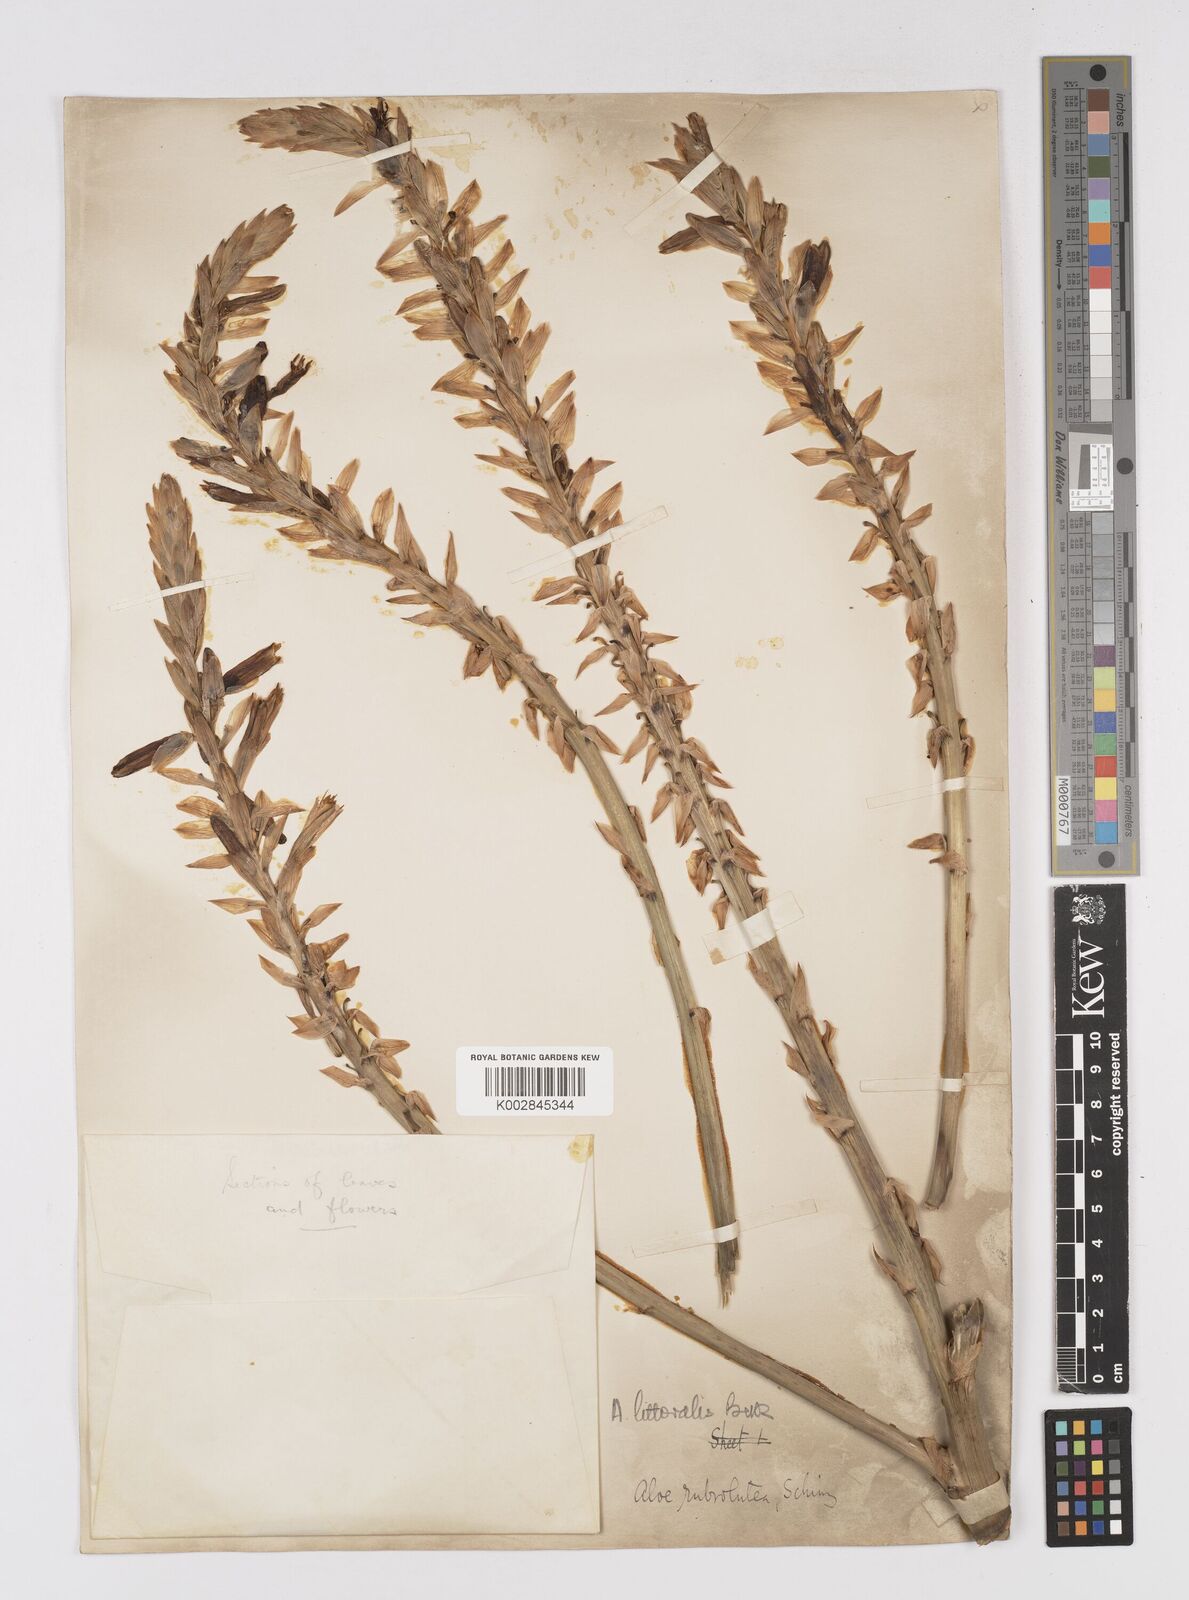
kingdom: Plantae
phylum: Tracheophyta
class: Liliopsida
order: Asparagales
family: Asphodelaceae
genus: Aloe
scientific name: Aloe littoralis
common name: Luanda tree aloe
